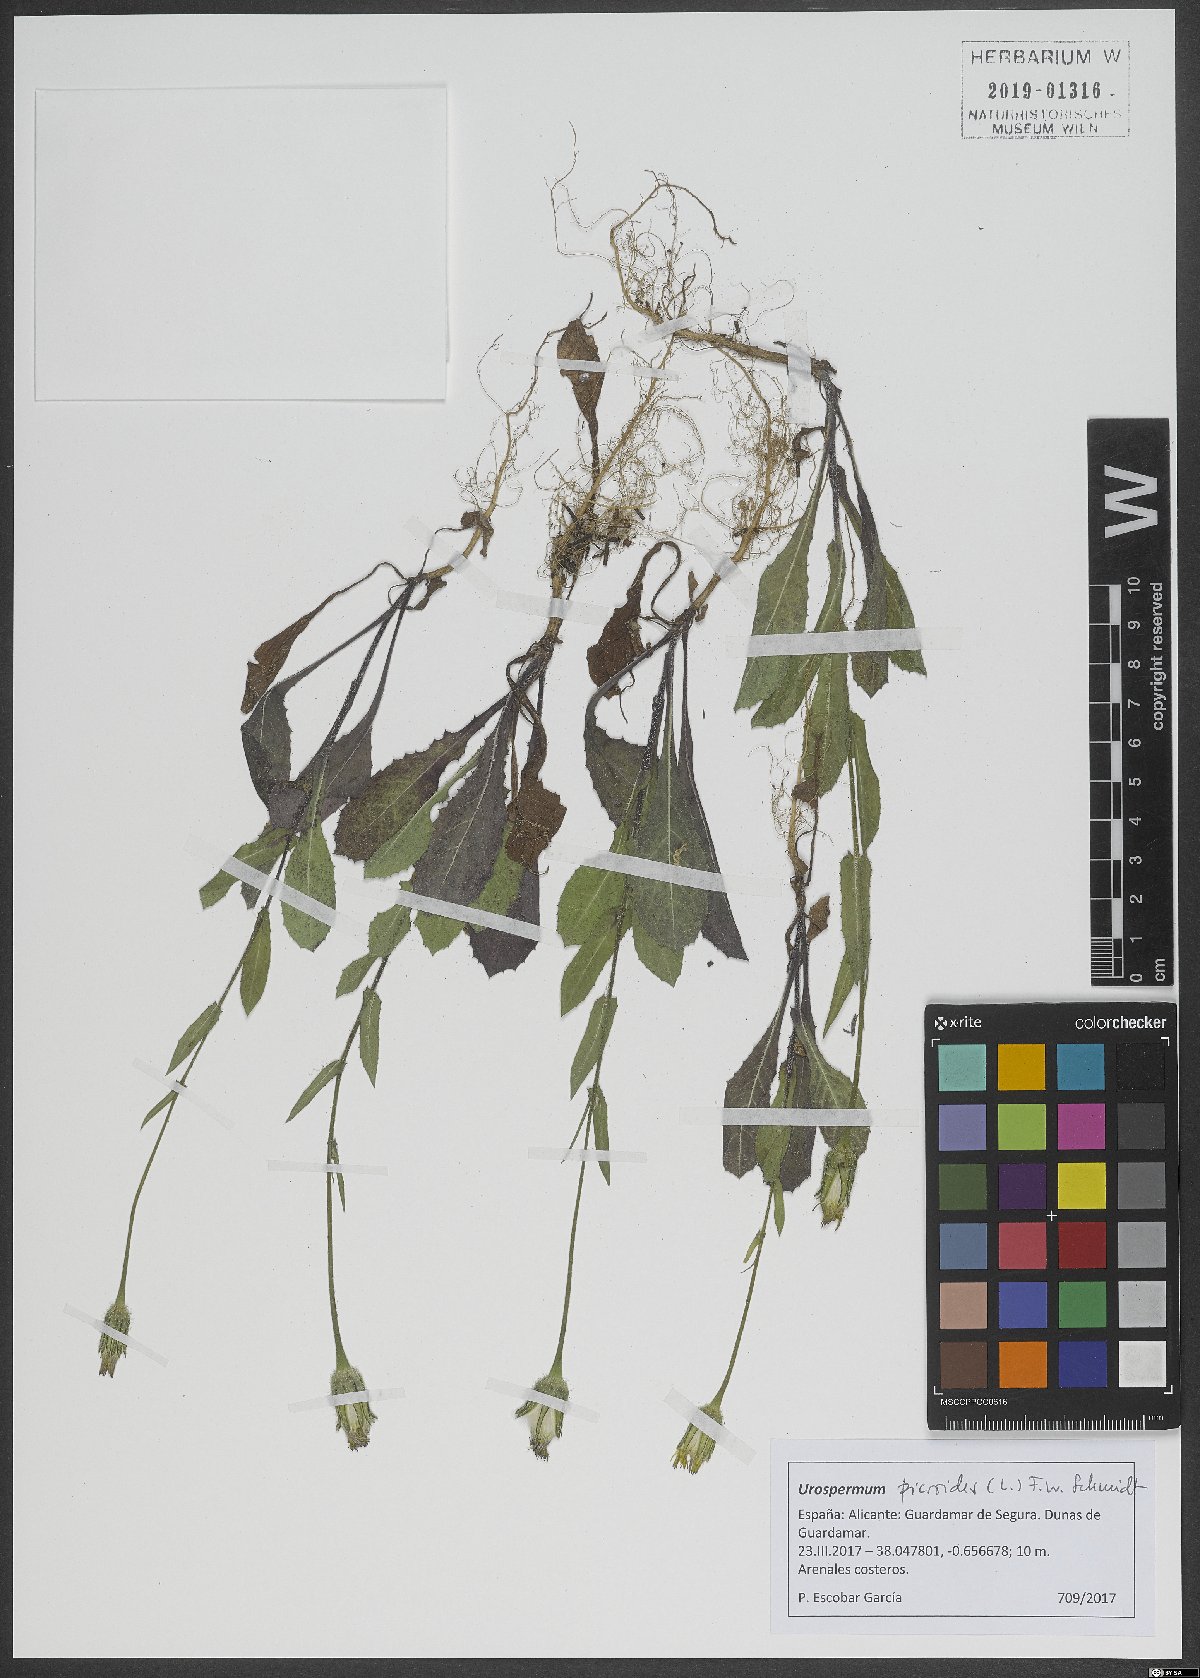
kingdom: Plantae
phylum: Tracheophyta
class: Magnoliopsida
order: Asterales
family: Asteraceae
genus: Urospermum
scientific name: Urospermum picroides
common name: False hawkbit
